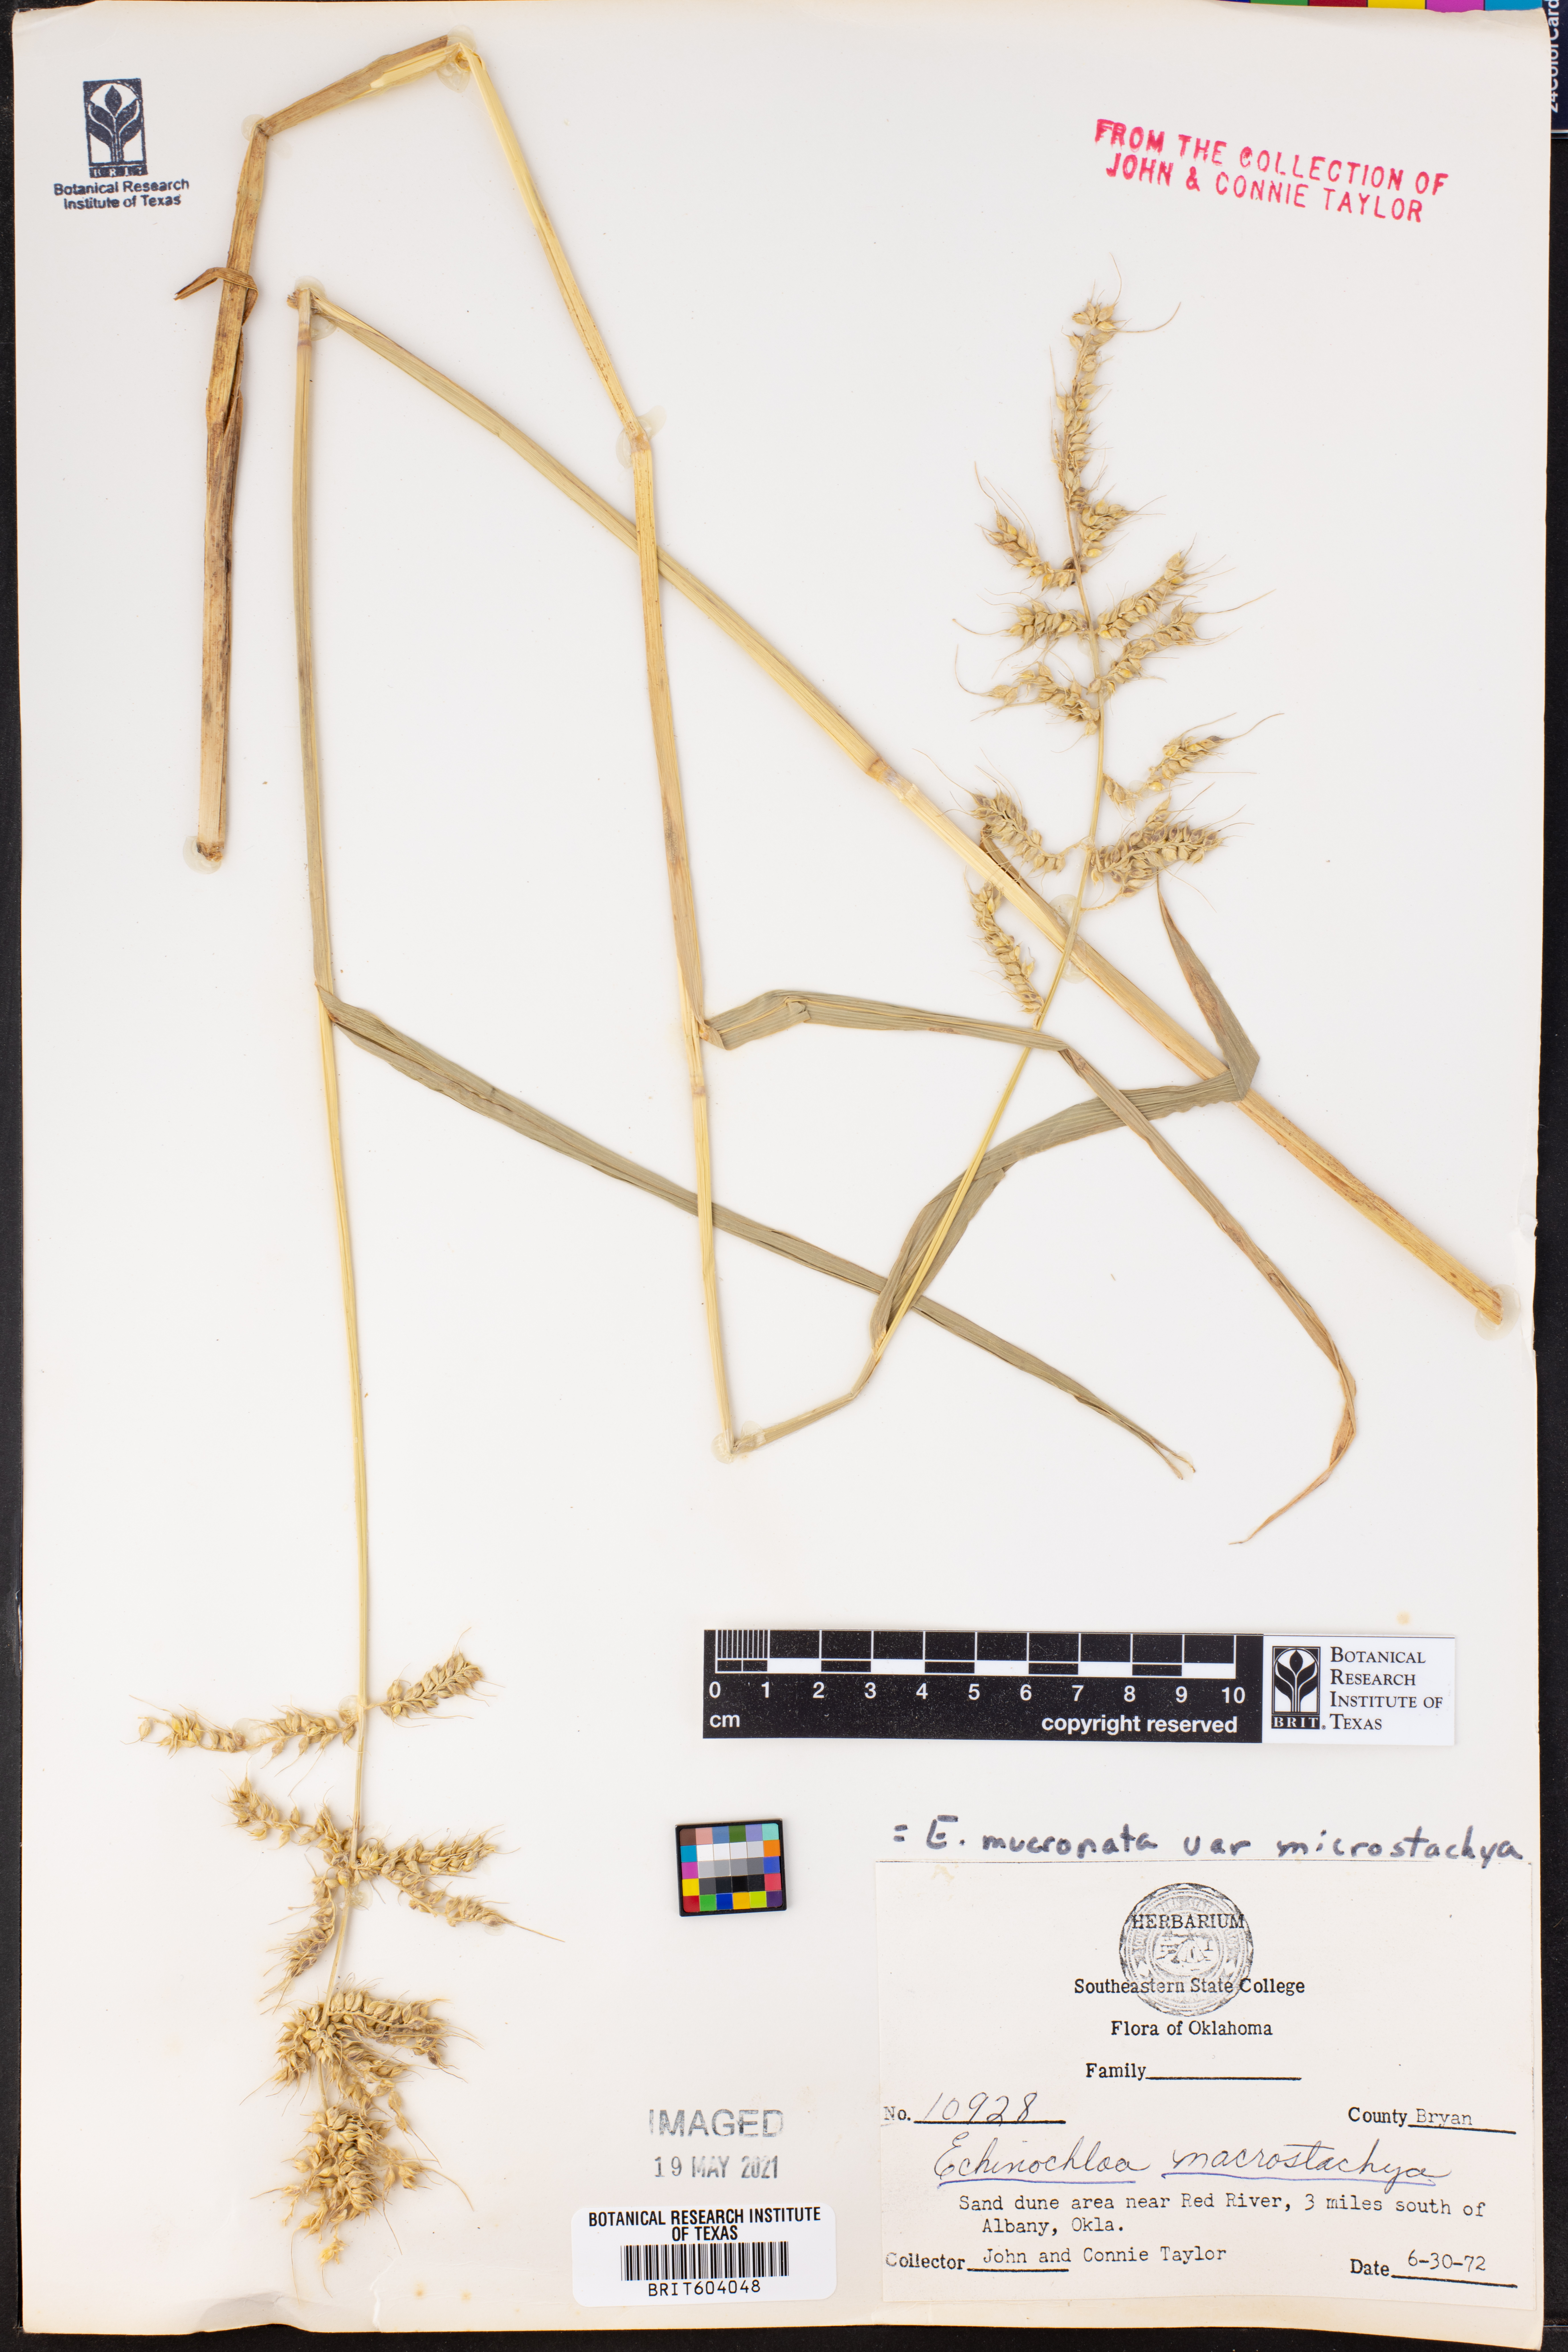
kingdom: Plantae
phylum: Tracheophyta
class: Liliopsida
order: Poales
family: Poaceae
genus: Echinochloa
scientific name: Echinochloa
